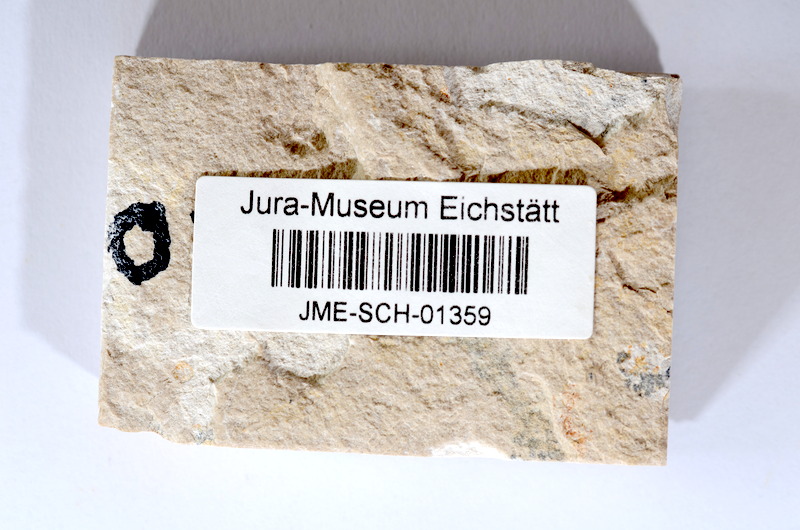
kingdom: Animalia
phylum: Chordata
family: Ascalaboidae
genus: Tharsis
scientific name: Tharsis dubius
